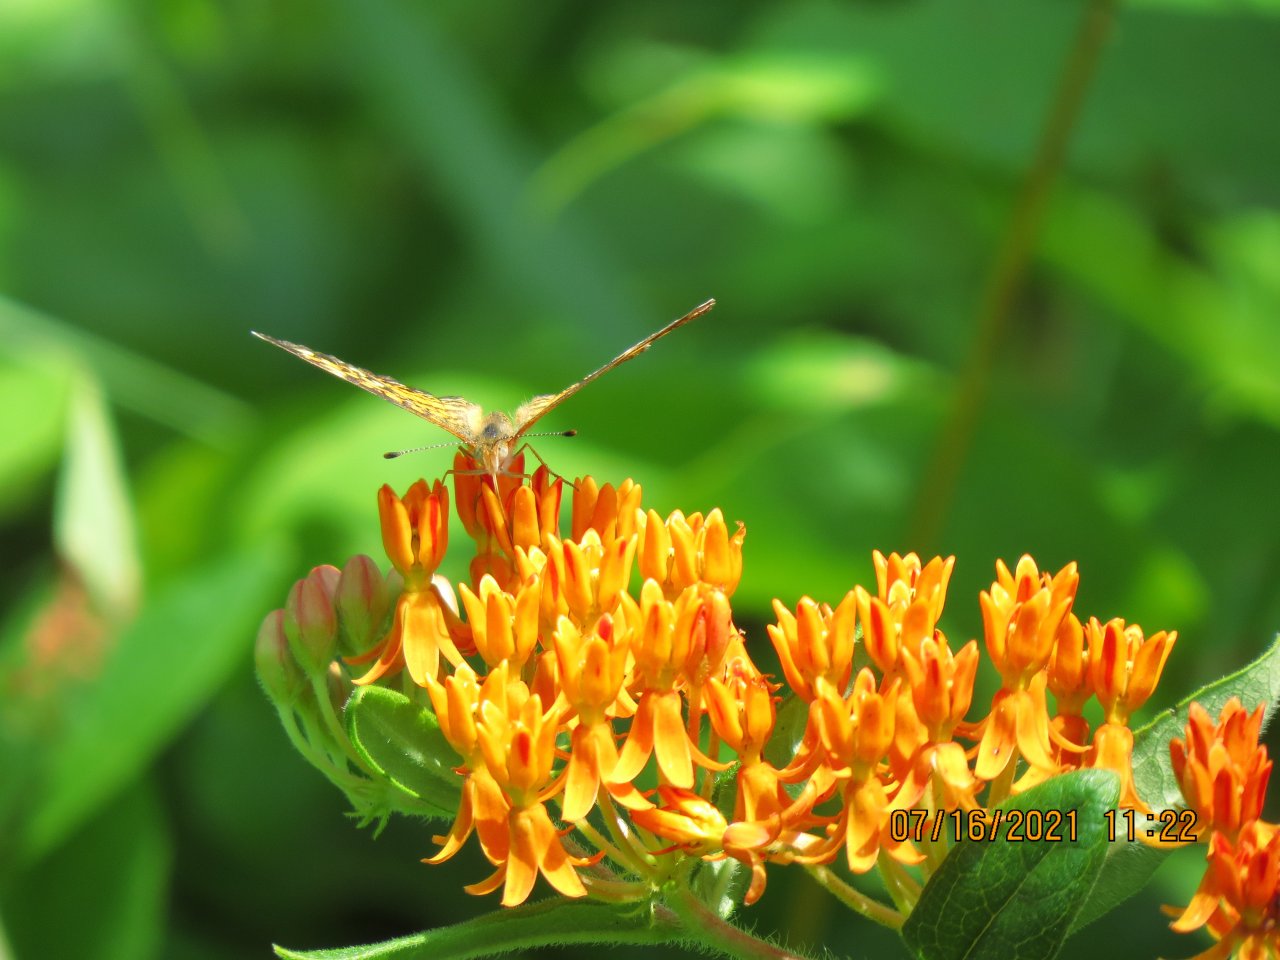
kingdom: Animalia
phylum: Arthropoda
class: Insecta
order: Lepidoptera
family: Nymphalidae
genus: Phyciodes
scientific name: Phyciodes
